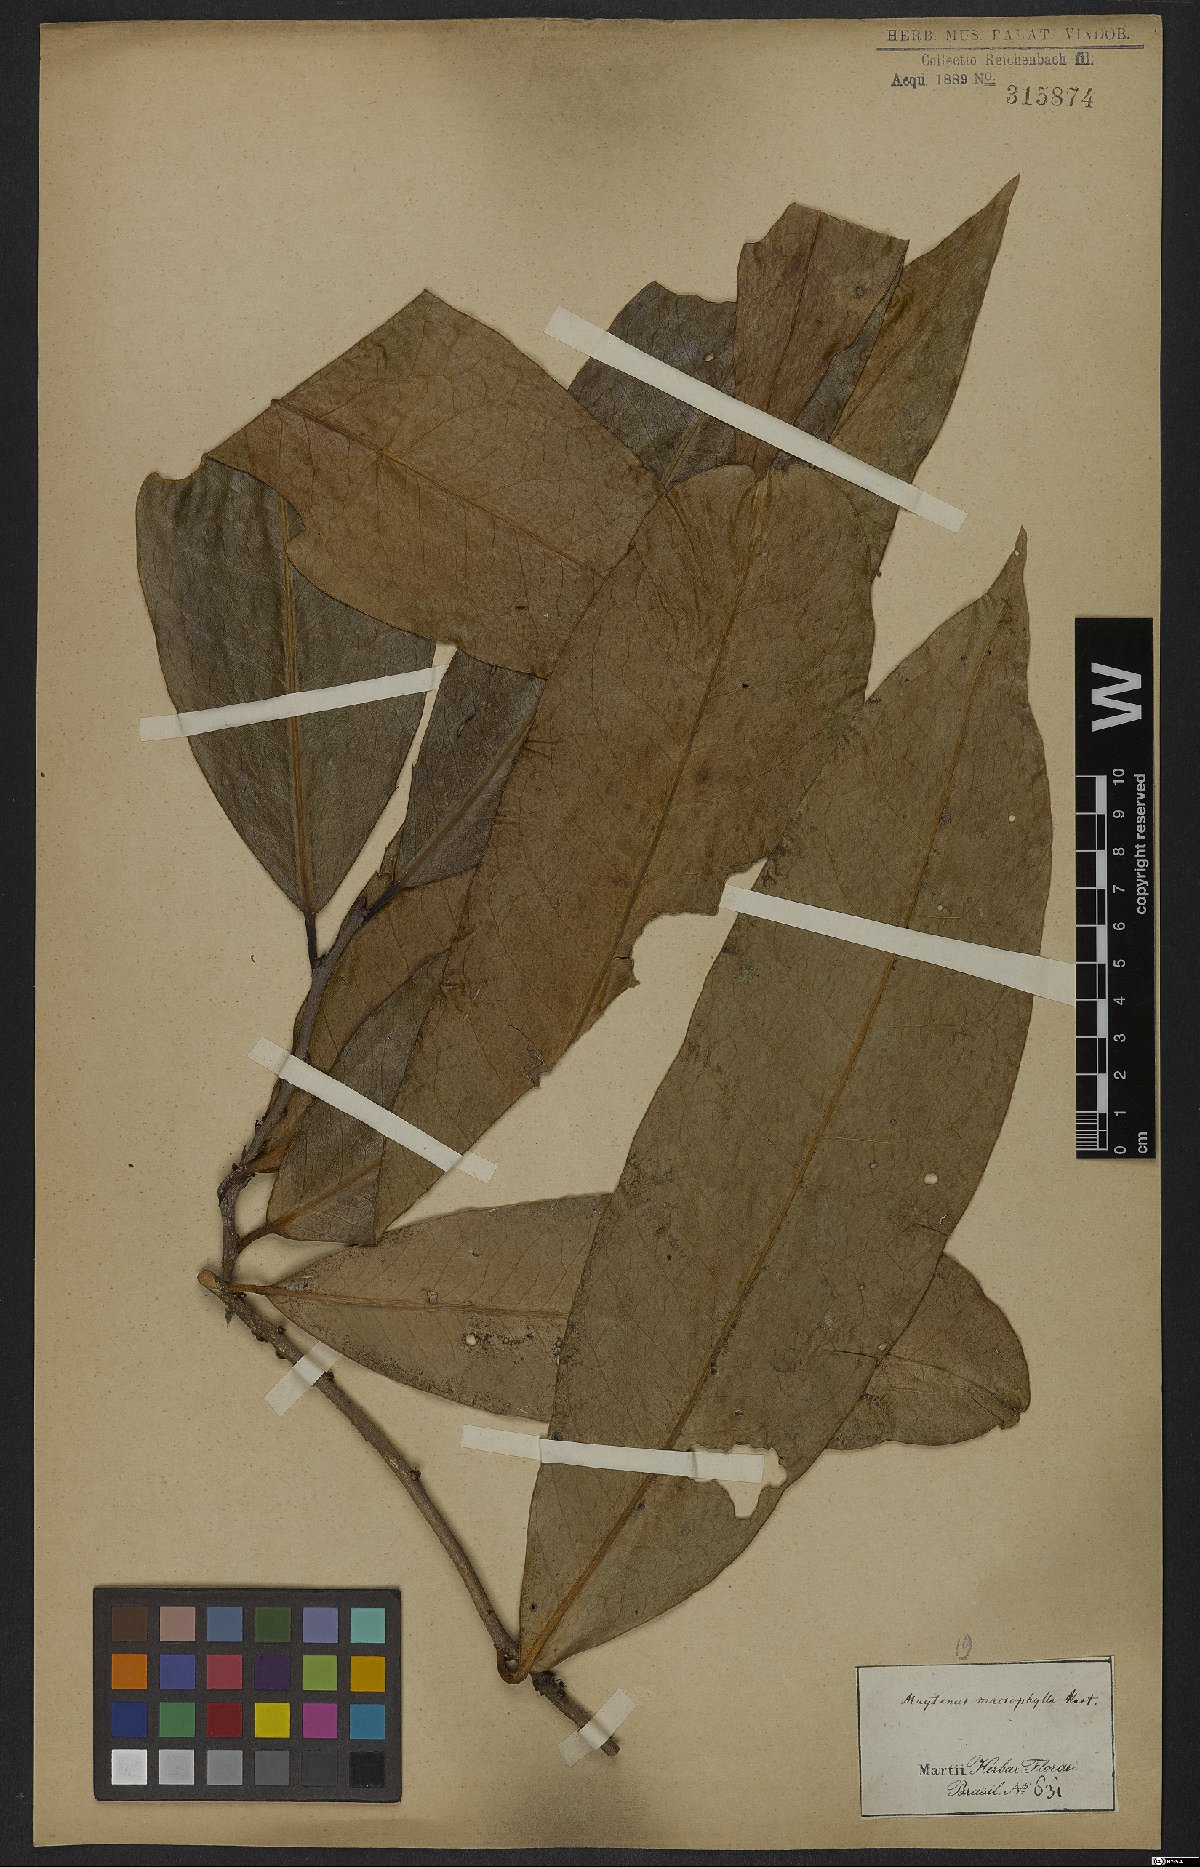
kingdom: Plantae
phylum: Tracheophyta
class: Magnoliopsida
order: Celastrales
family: Celastraceae
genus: Monteverdia
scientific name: Monteverdia macrophylla
